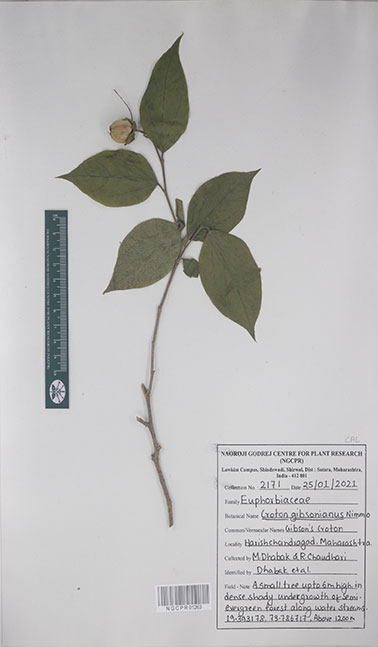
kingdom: Plantae
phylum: Tracheophyta
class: Magnoliopsida
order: Malpighiales
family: Euphorbiaceae
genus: Croton
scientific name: Croton gibsonianus
